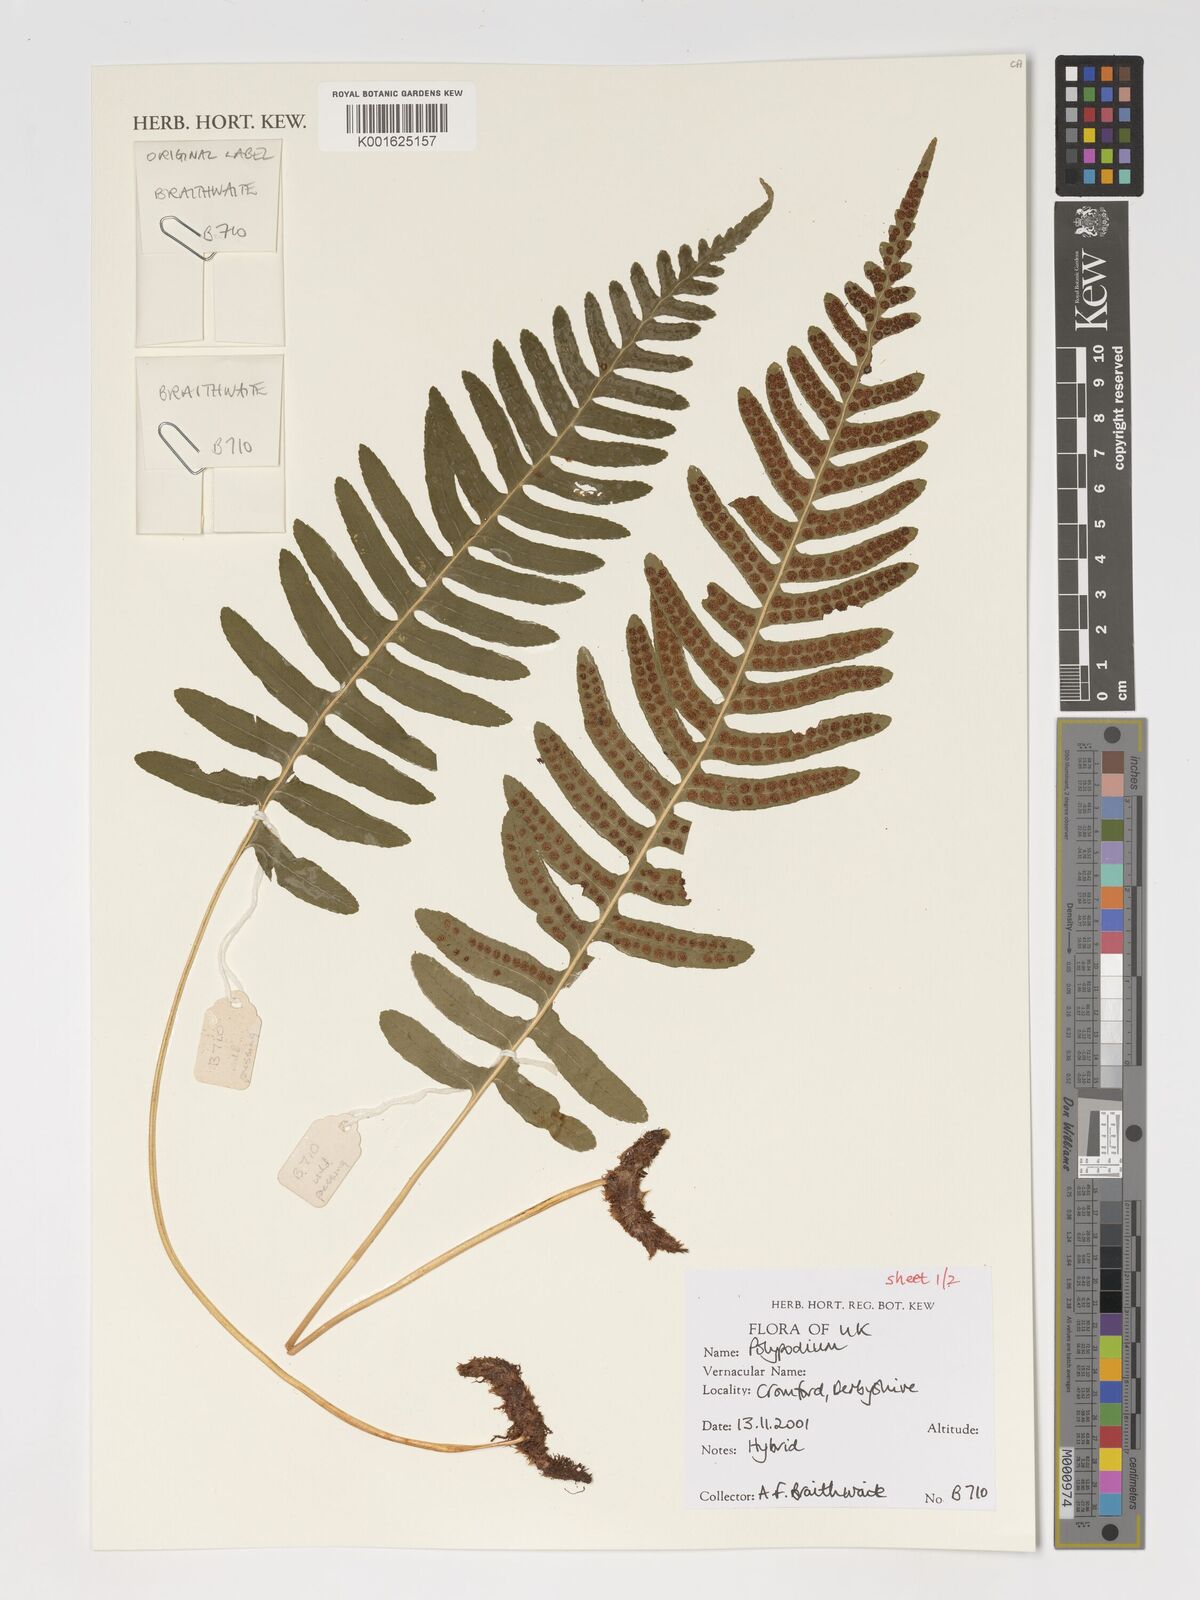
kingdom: Plantae
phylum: Tracheophyta
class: Polypodiopsida
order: Polypodiales
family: Polypodiaceae
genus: Polypodium
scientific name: Polypodium
